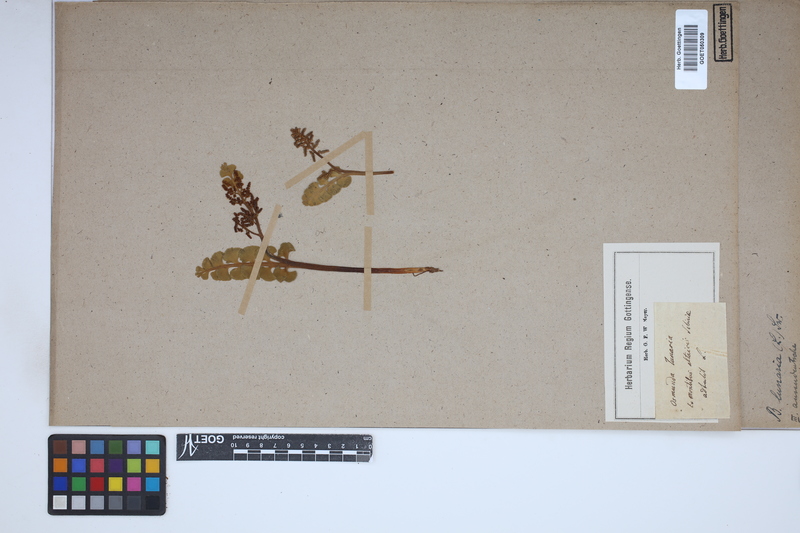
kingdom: Plantae
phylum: Tracheophyta
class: Polypodiopsida
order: Ophioglossales
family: Ophioglossaceae
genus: Botrychium
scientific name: Botrychium lunaria
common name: Moonwort
